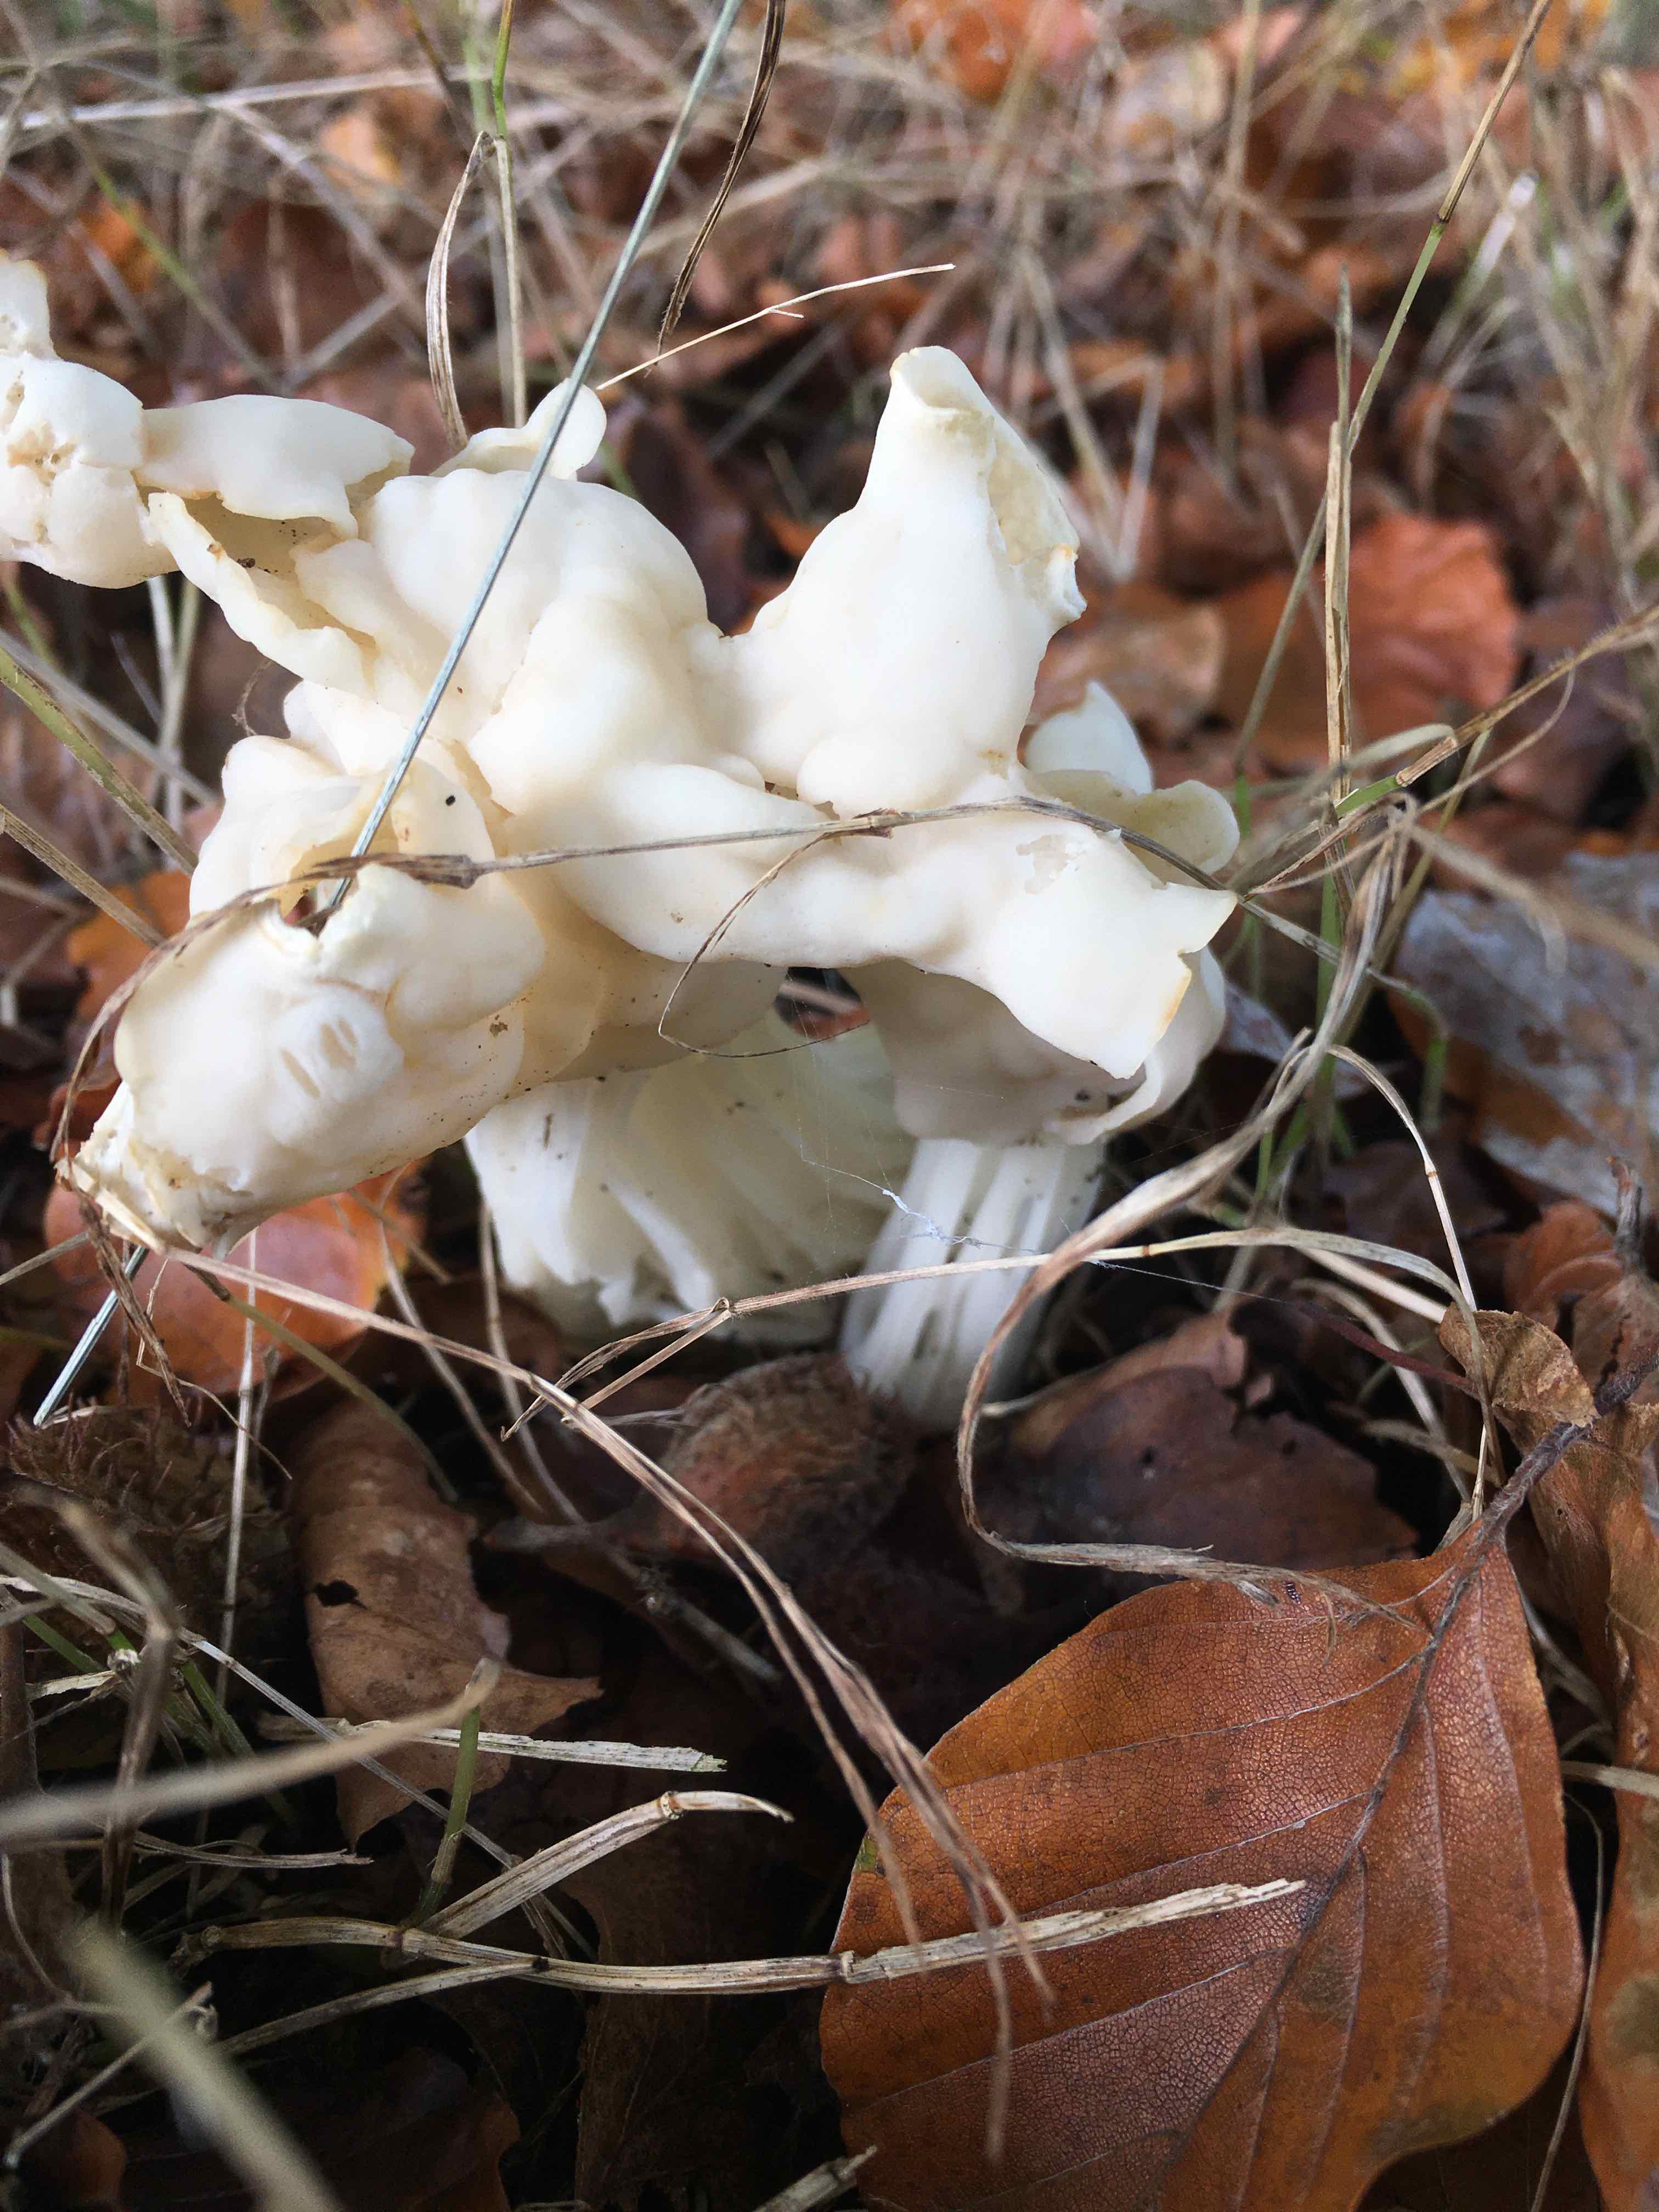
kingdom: Fungi
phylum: Ascomycota
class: Pezizomycetes
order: Pezizales
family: Helvellaceae
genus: Helvella
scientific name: Helvella crispa
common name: kruset foldhat
